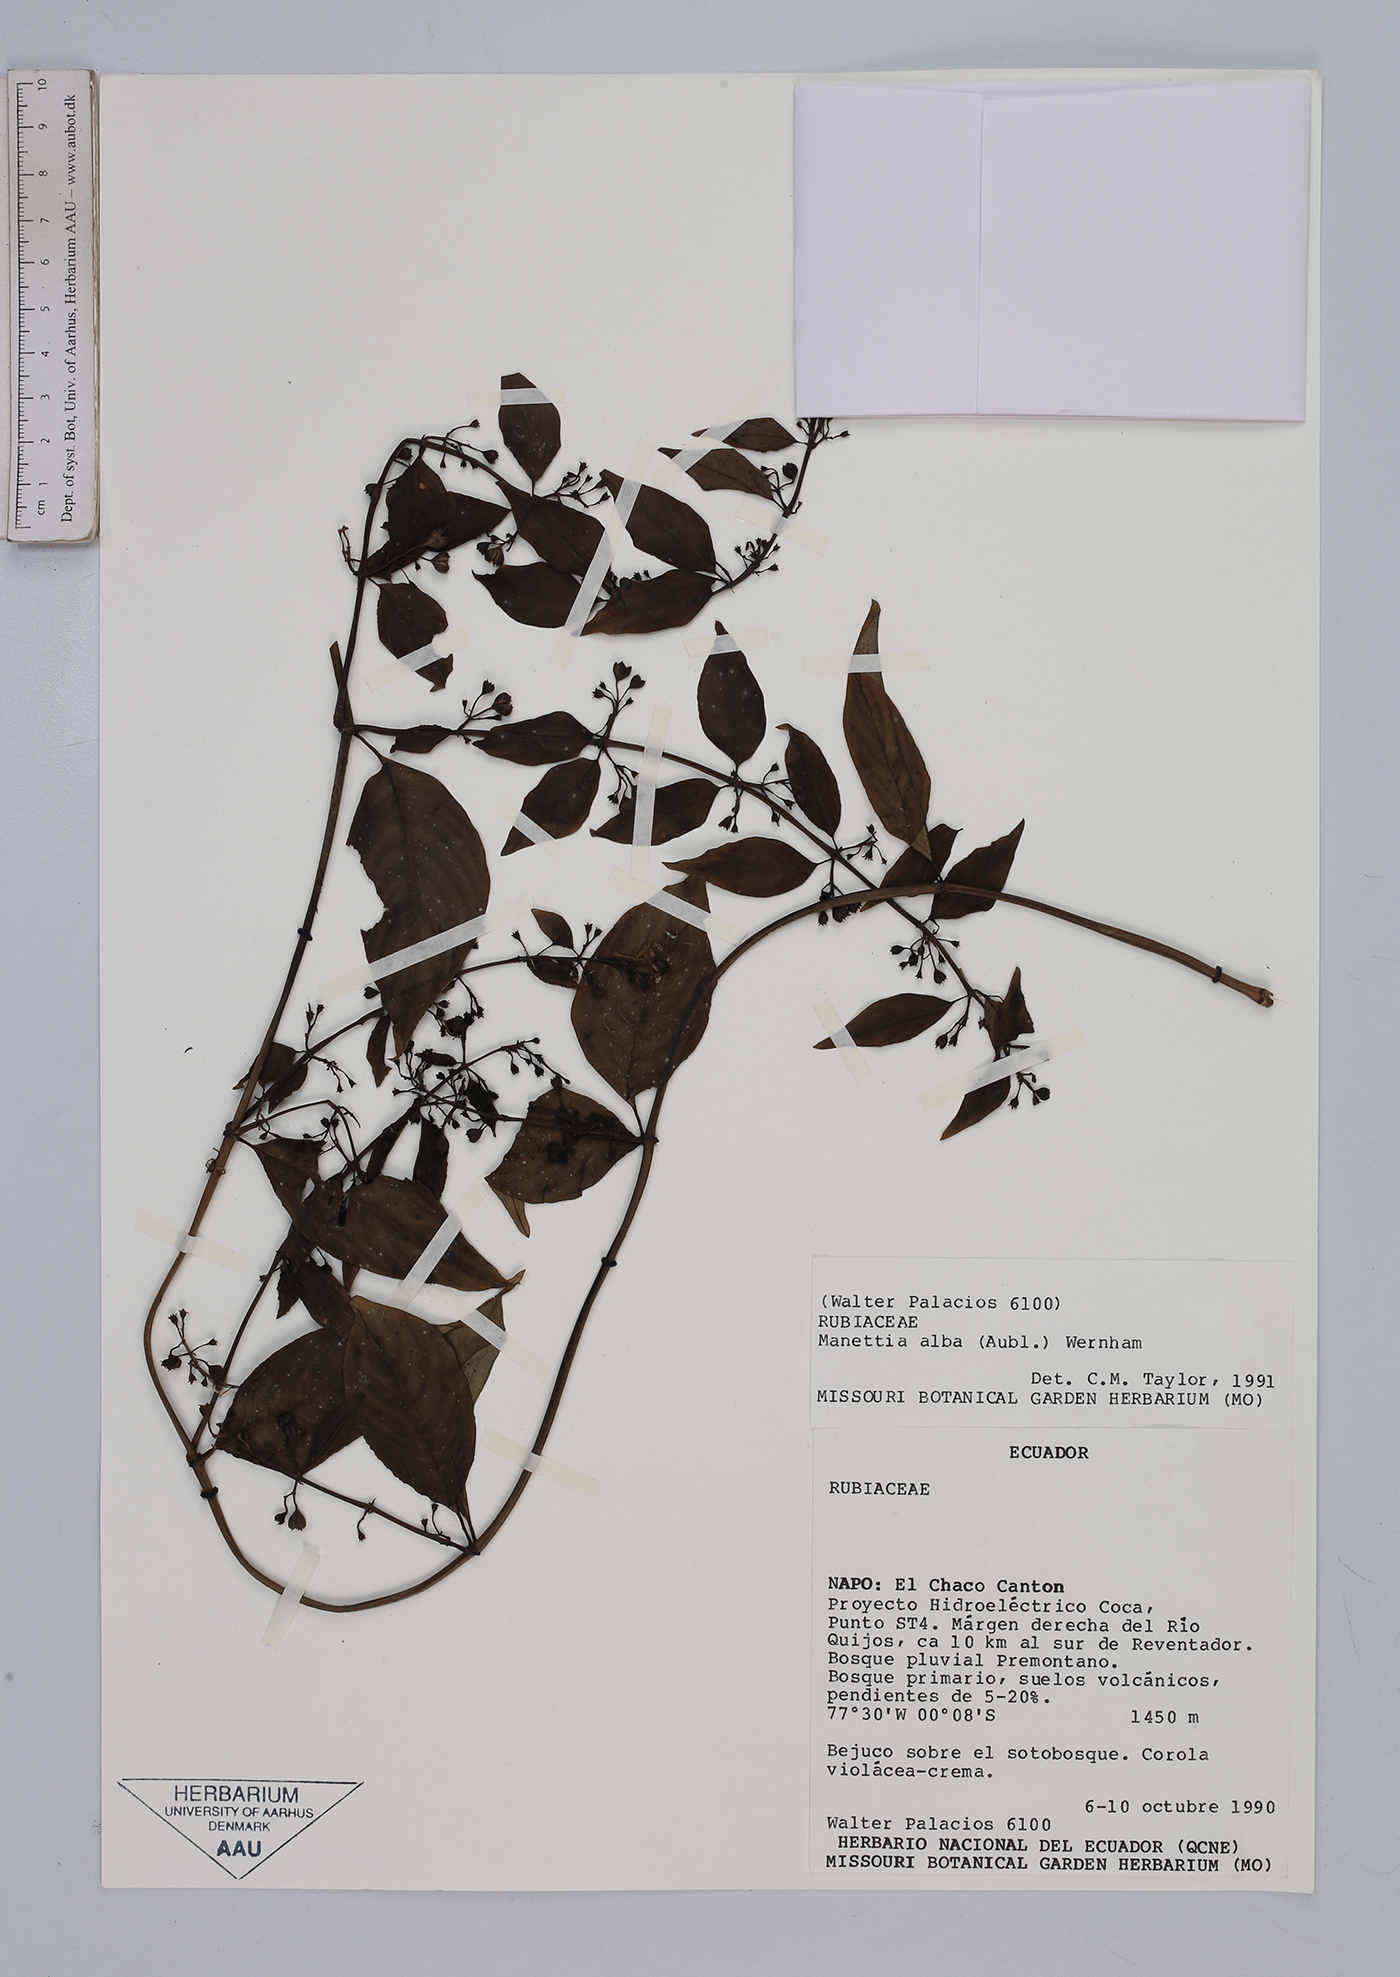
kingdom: Plantae
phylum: Tracheophyta
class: Magnoliopsida
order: Gentianales
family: Rubiaceae
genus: Manettia
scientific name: Manettia alba
